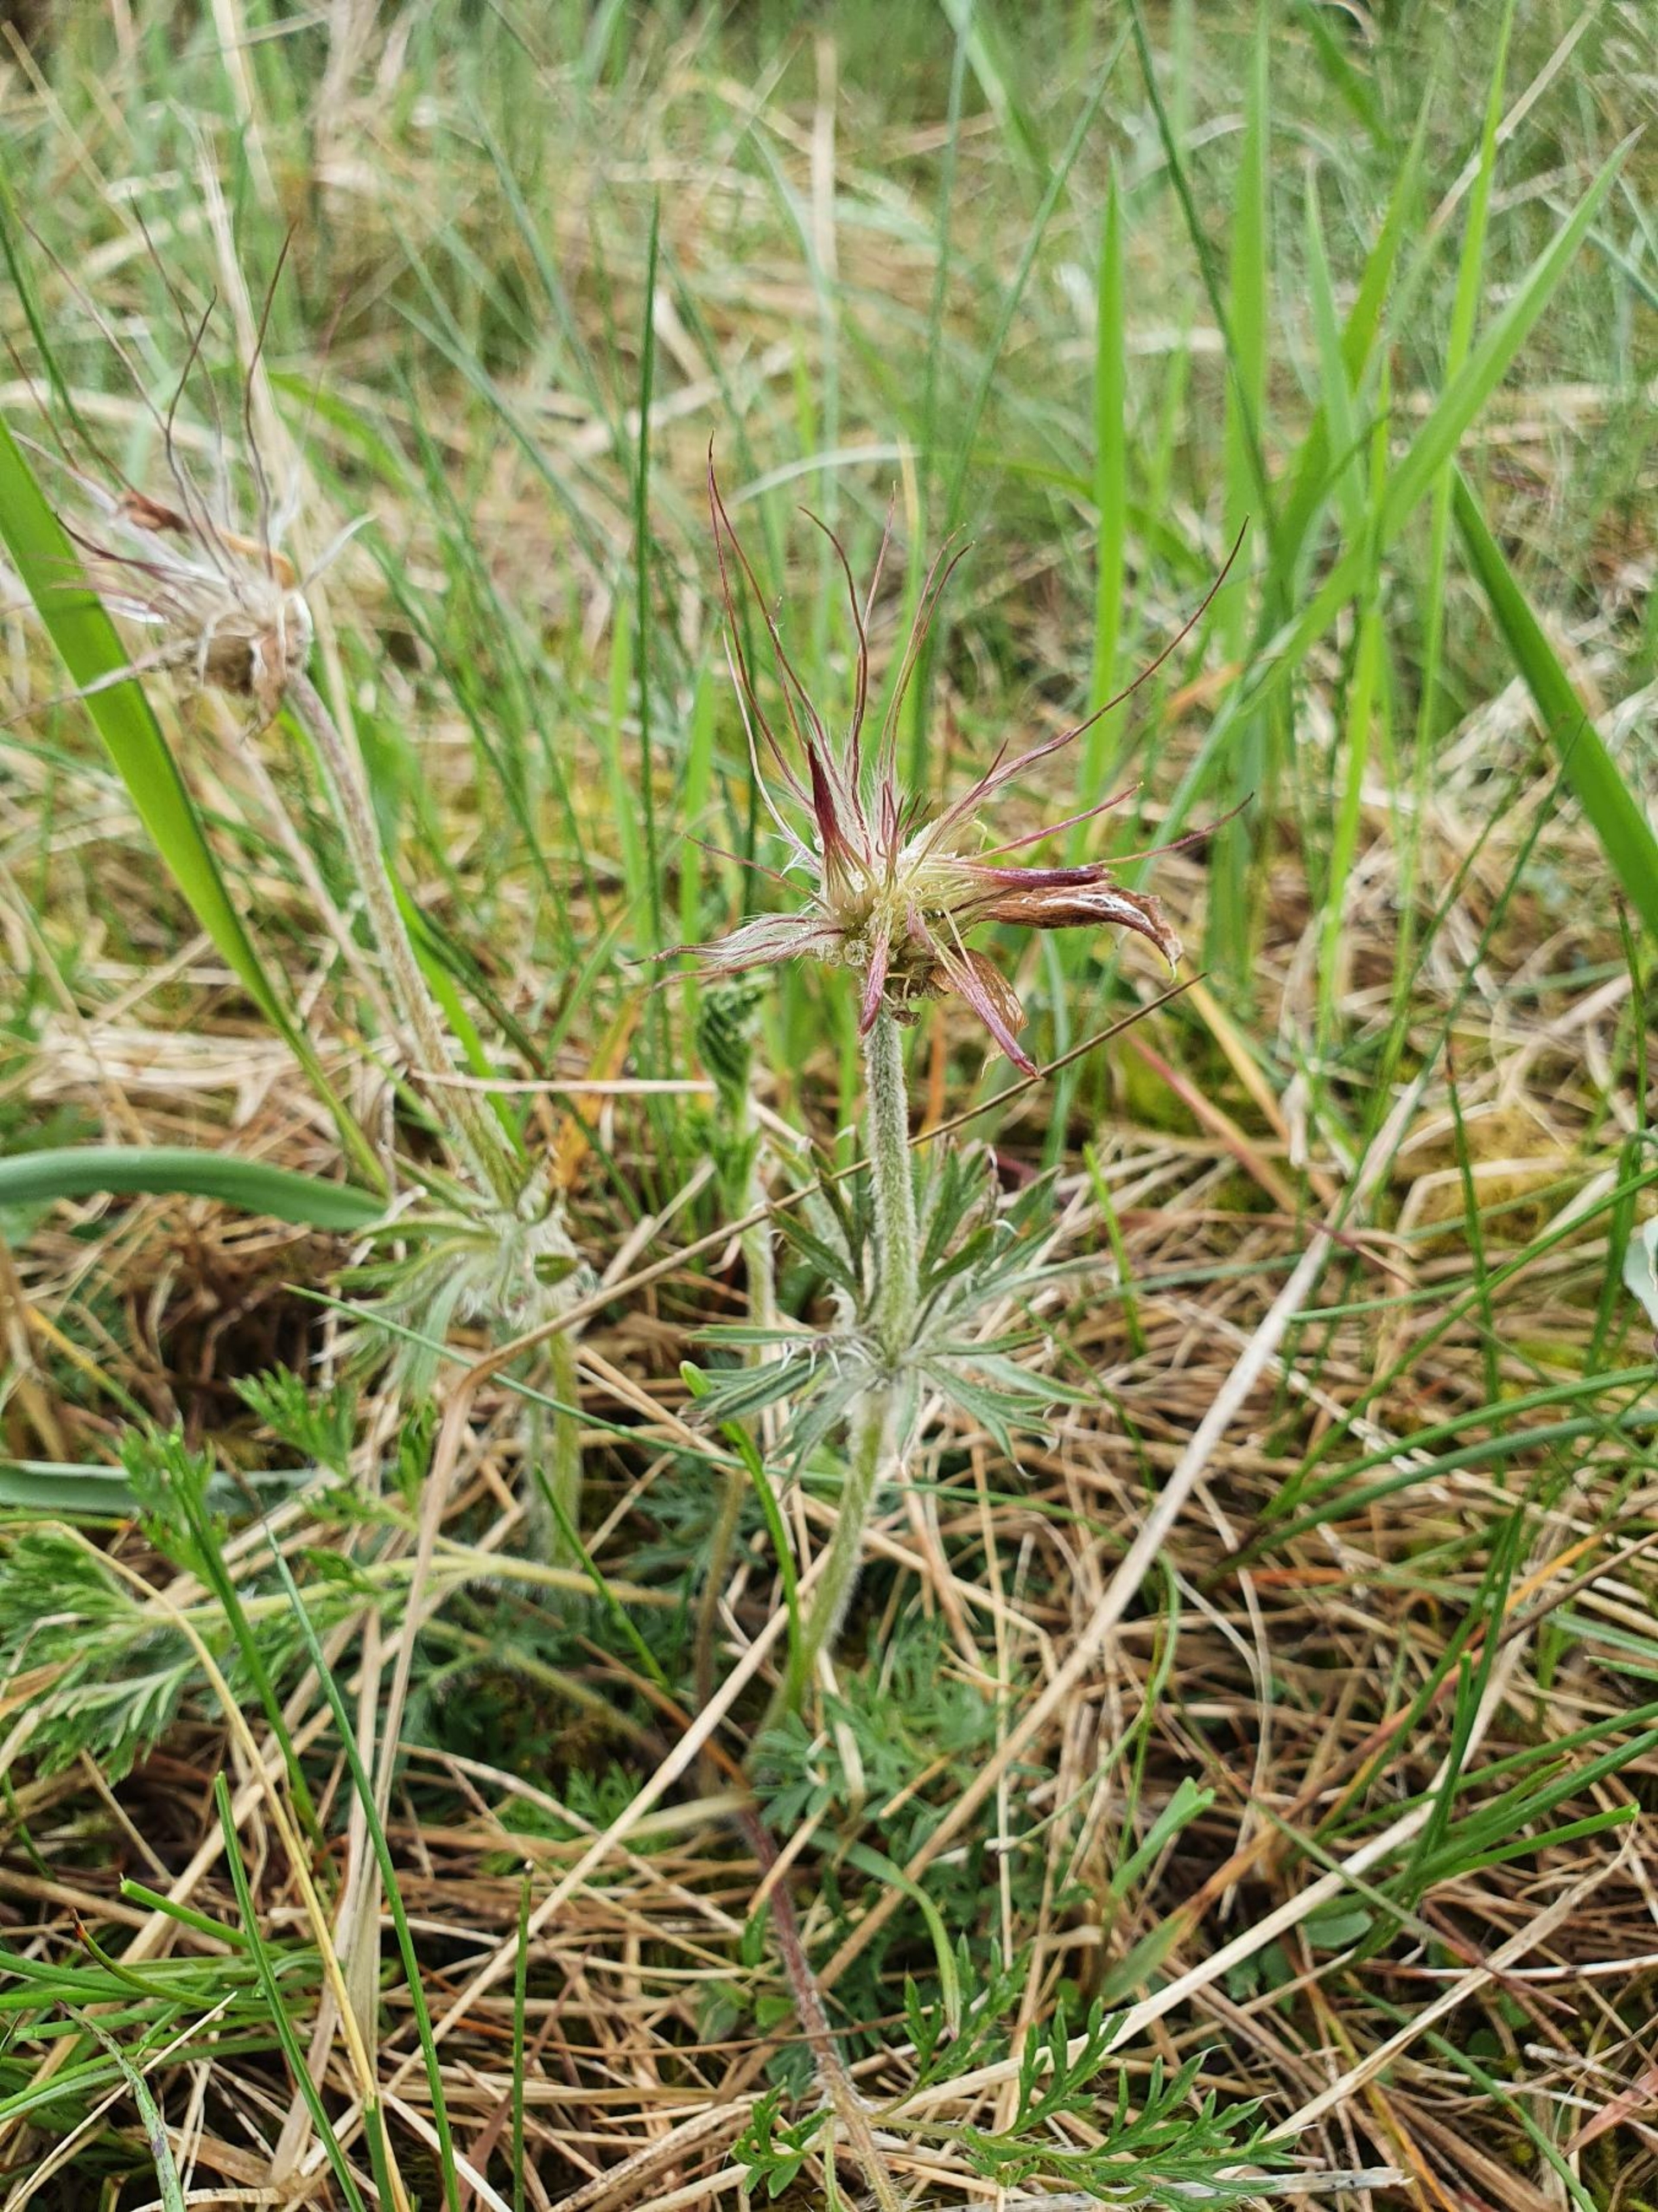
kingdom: Plantae
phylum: Tracheophyta
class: Magnoliopsida
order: Ranunculales
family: Ranunculaceae
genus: Pulsatilla
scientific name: Pulsatilla pratensis
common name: Nikkende kobjælde
